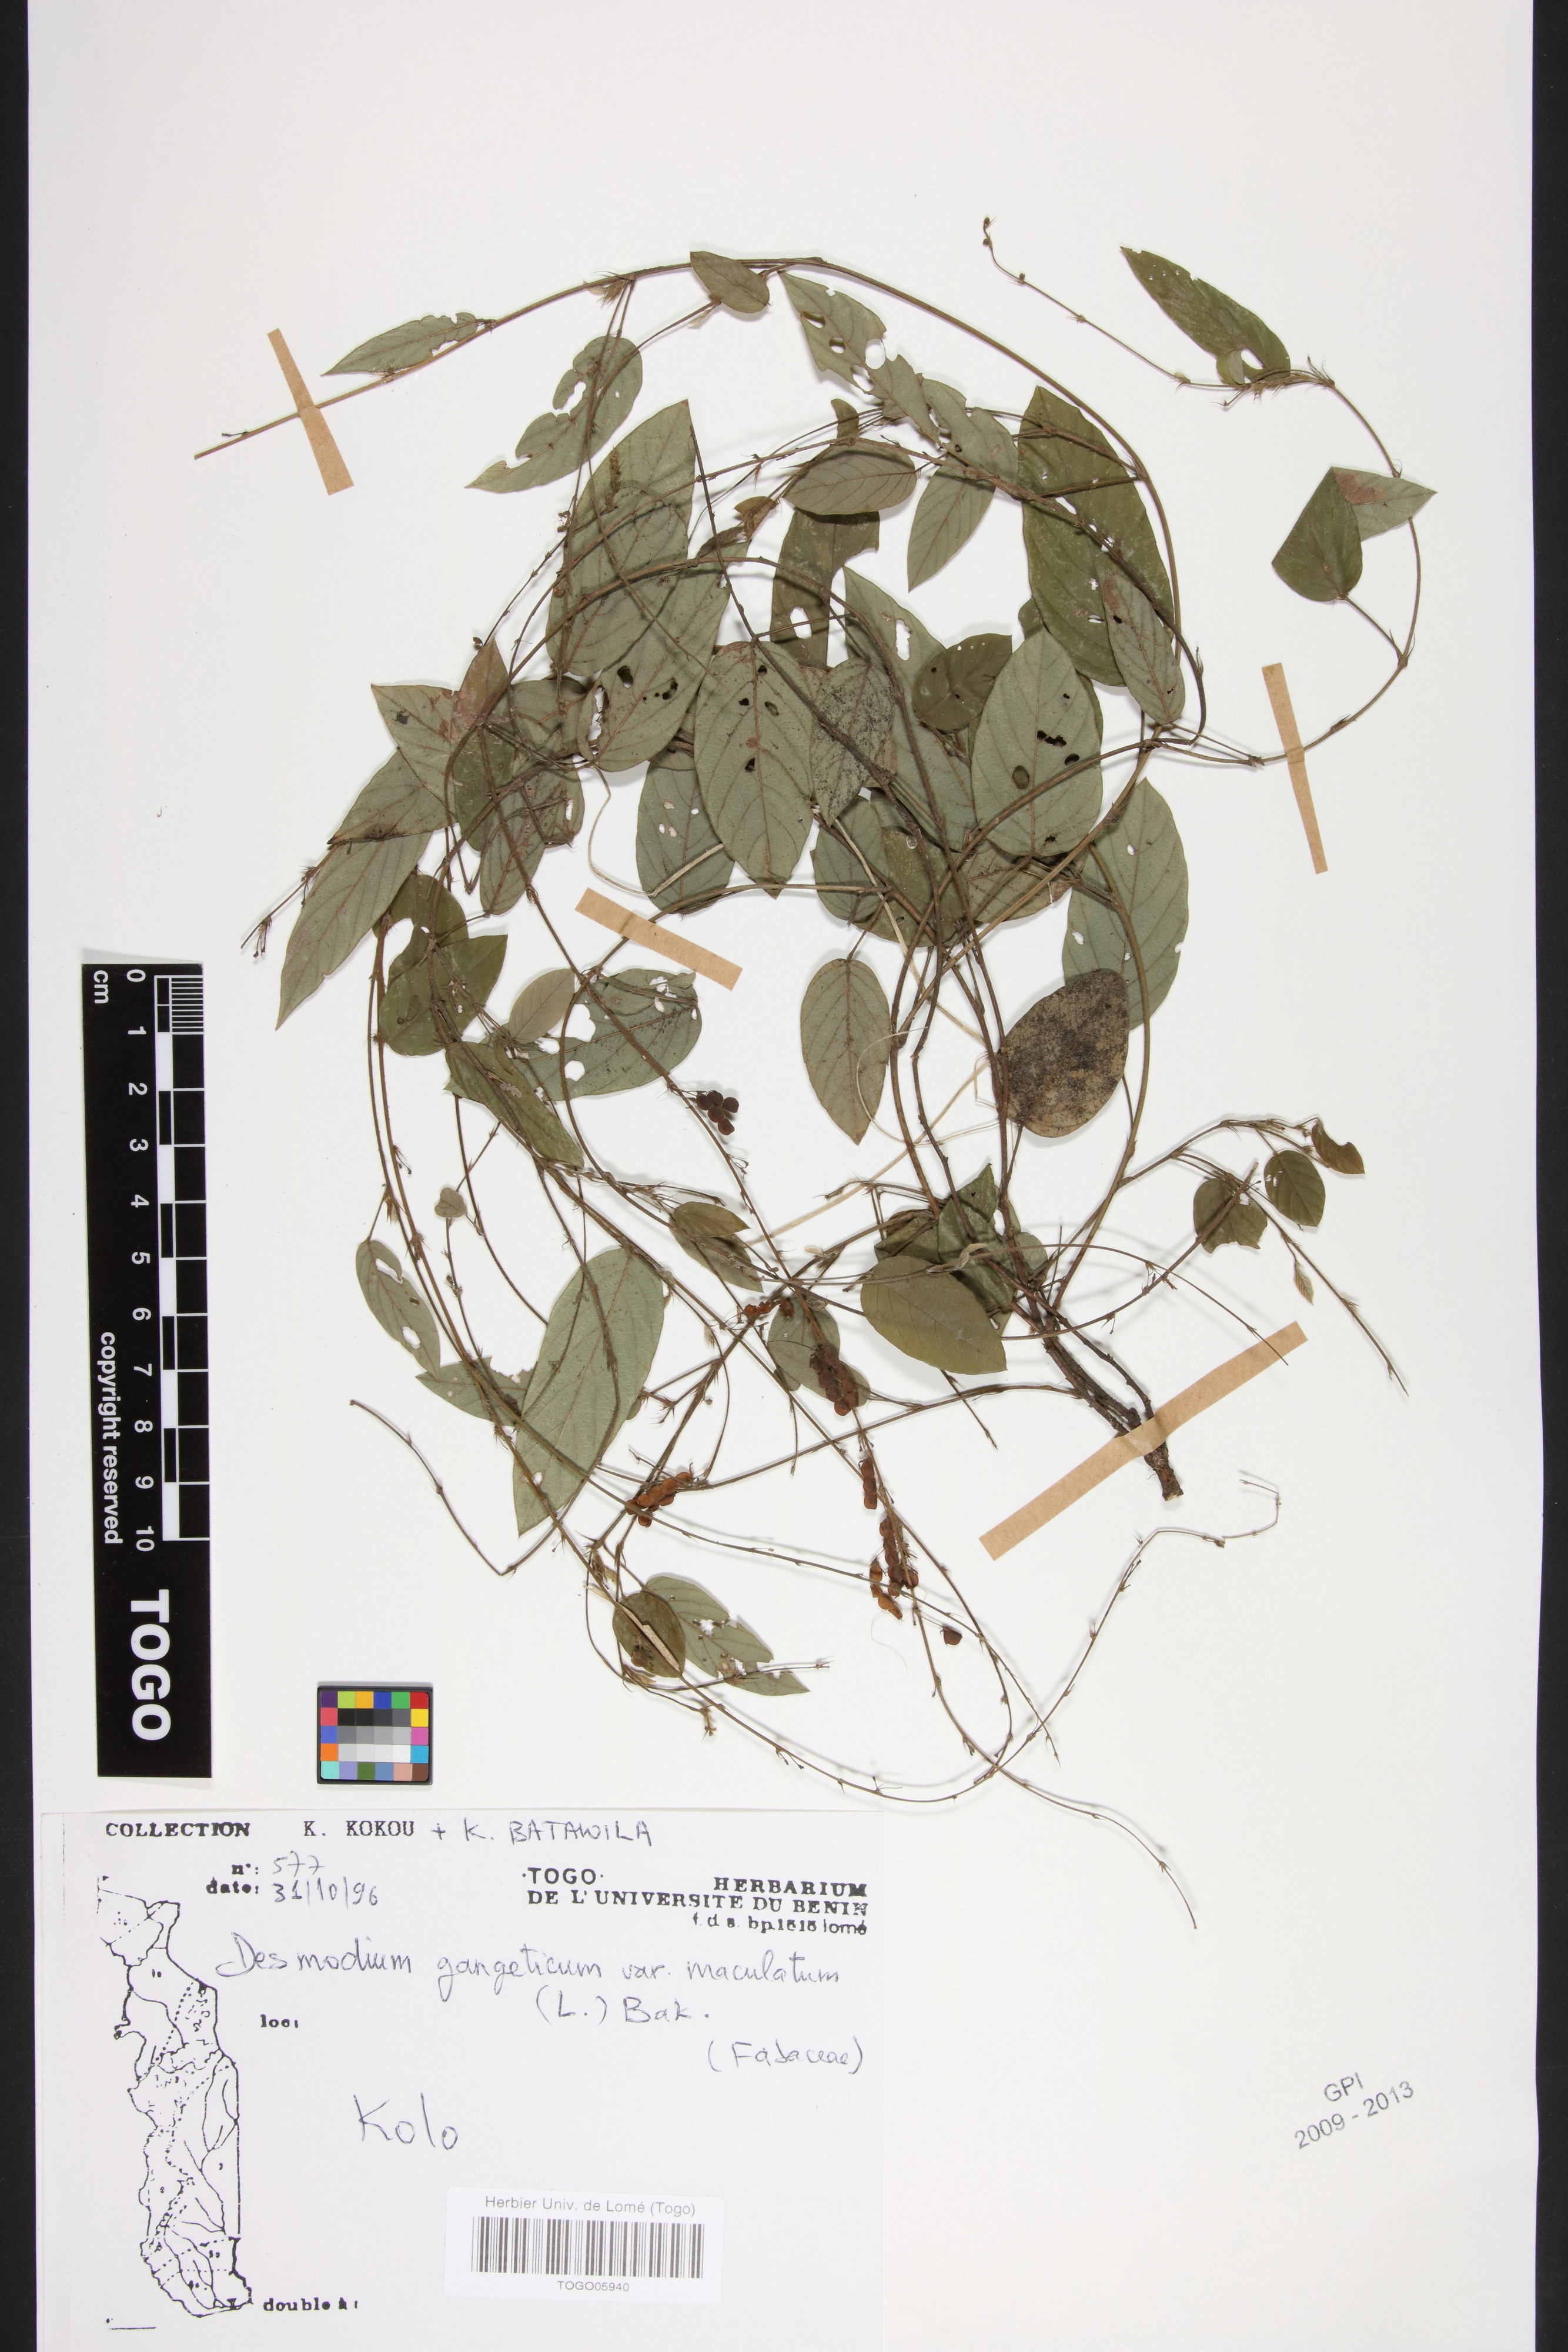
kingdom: Plantae
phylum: Tracheophyta
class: Magnoliopsida
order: Fabales
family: Fabaceae
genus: Pleurolobus
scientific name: Pleurolobus gangeticus
